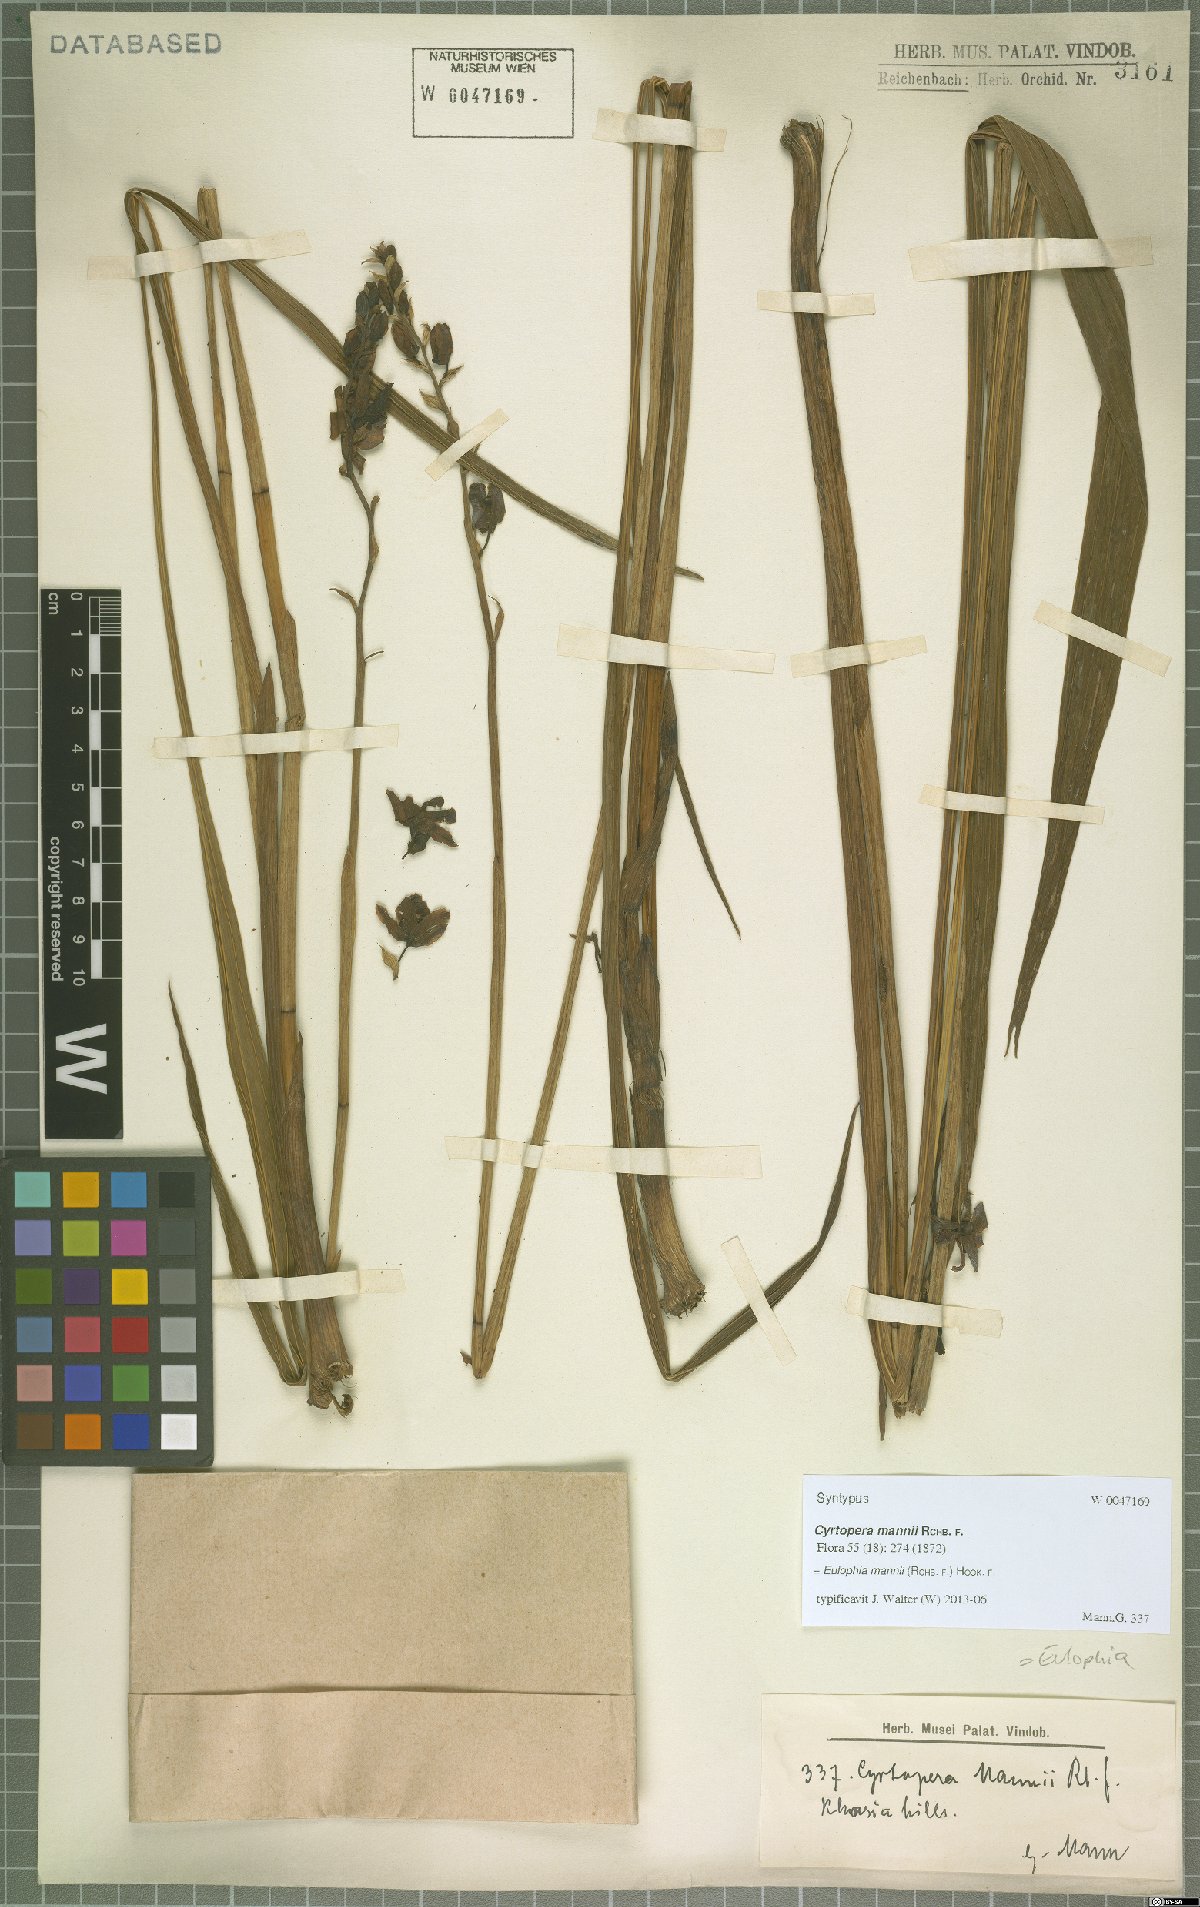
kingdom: Plantae
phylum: Tracheophyta
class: Liliopsida
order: Asparagales
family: Orchidaceae
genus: Eulophia
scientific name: Eulophia mannii
